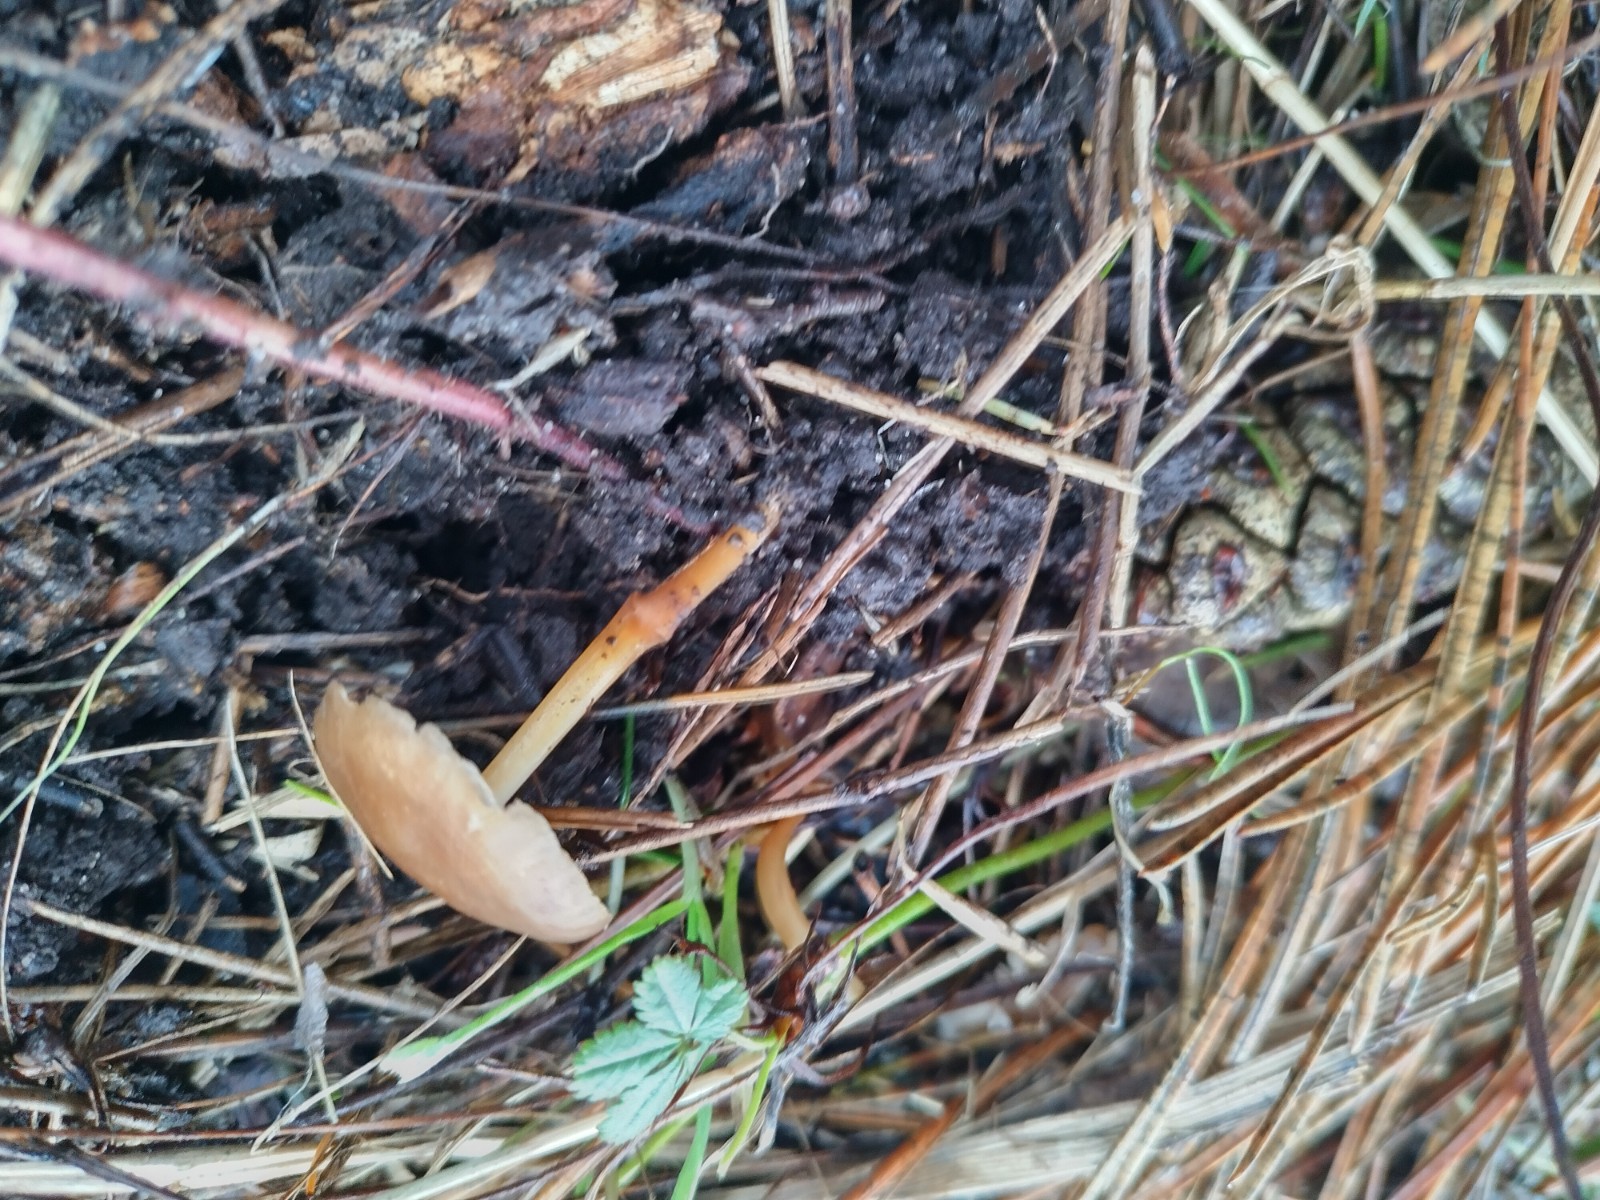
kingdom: Fungi
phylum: Basidiomycota
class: Agaricomycetes
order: Agaricales
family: Marasmiaceae
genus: Baeospora
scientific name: Baeospora myosura
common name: koglebruskhat
